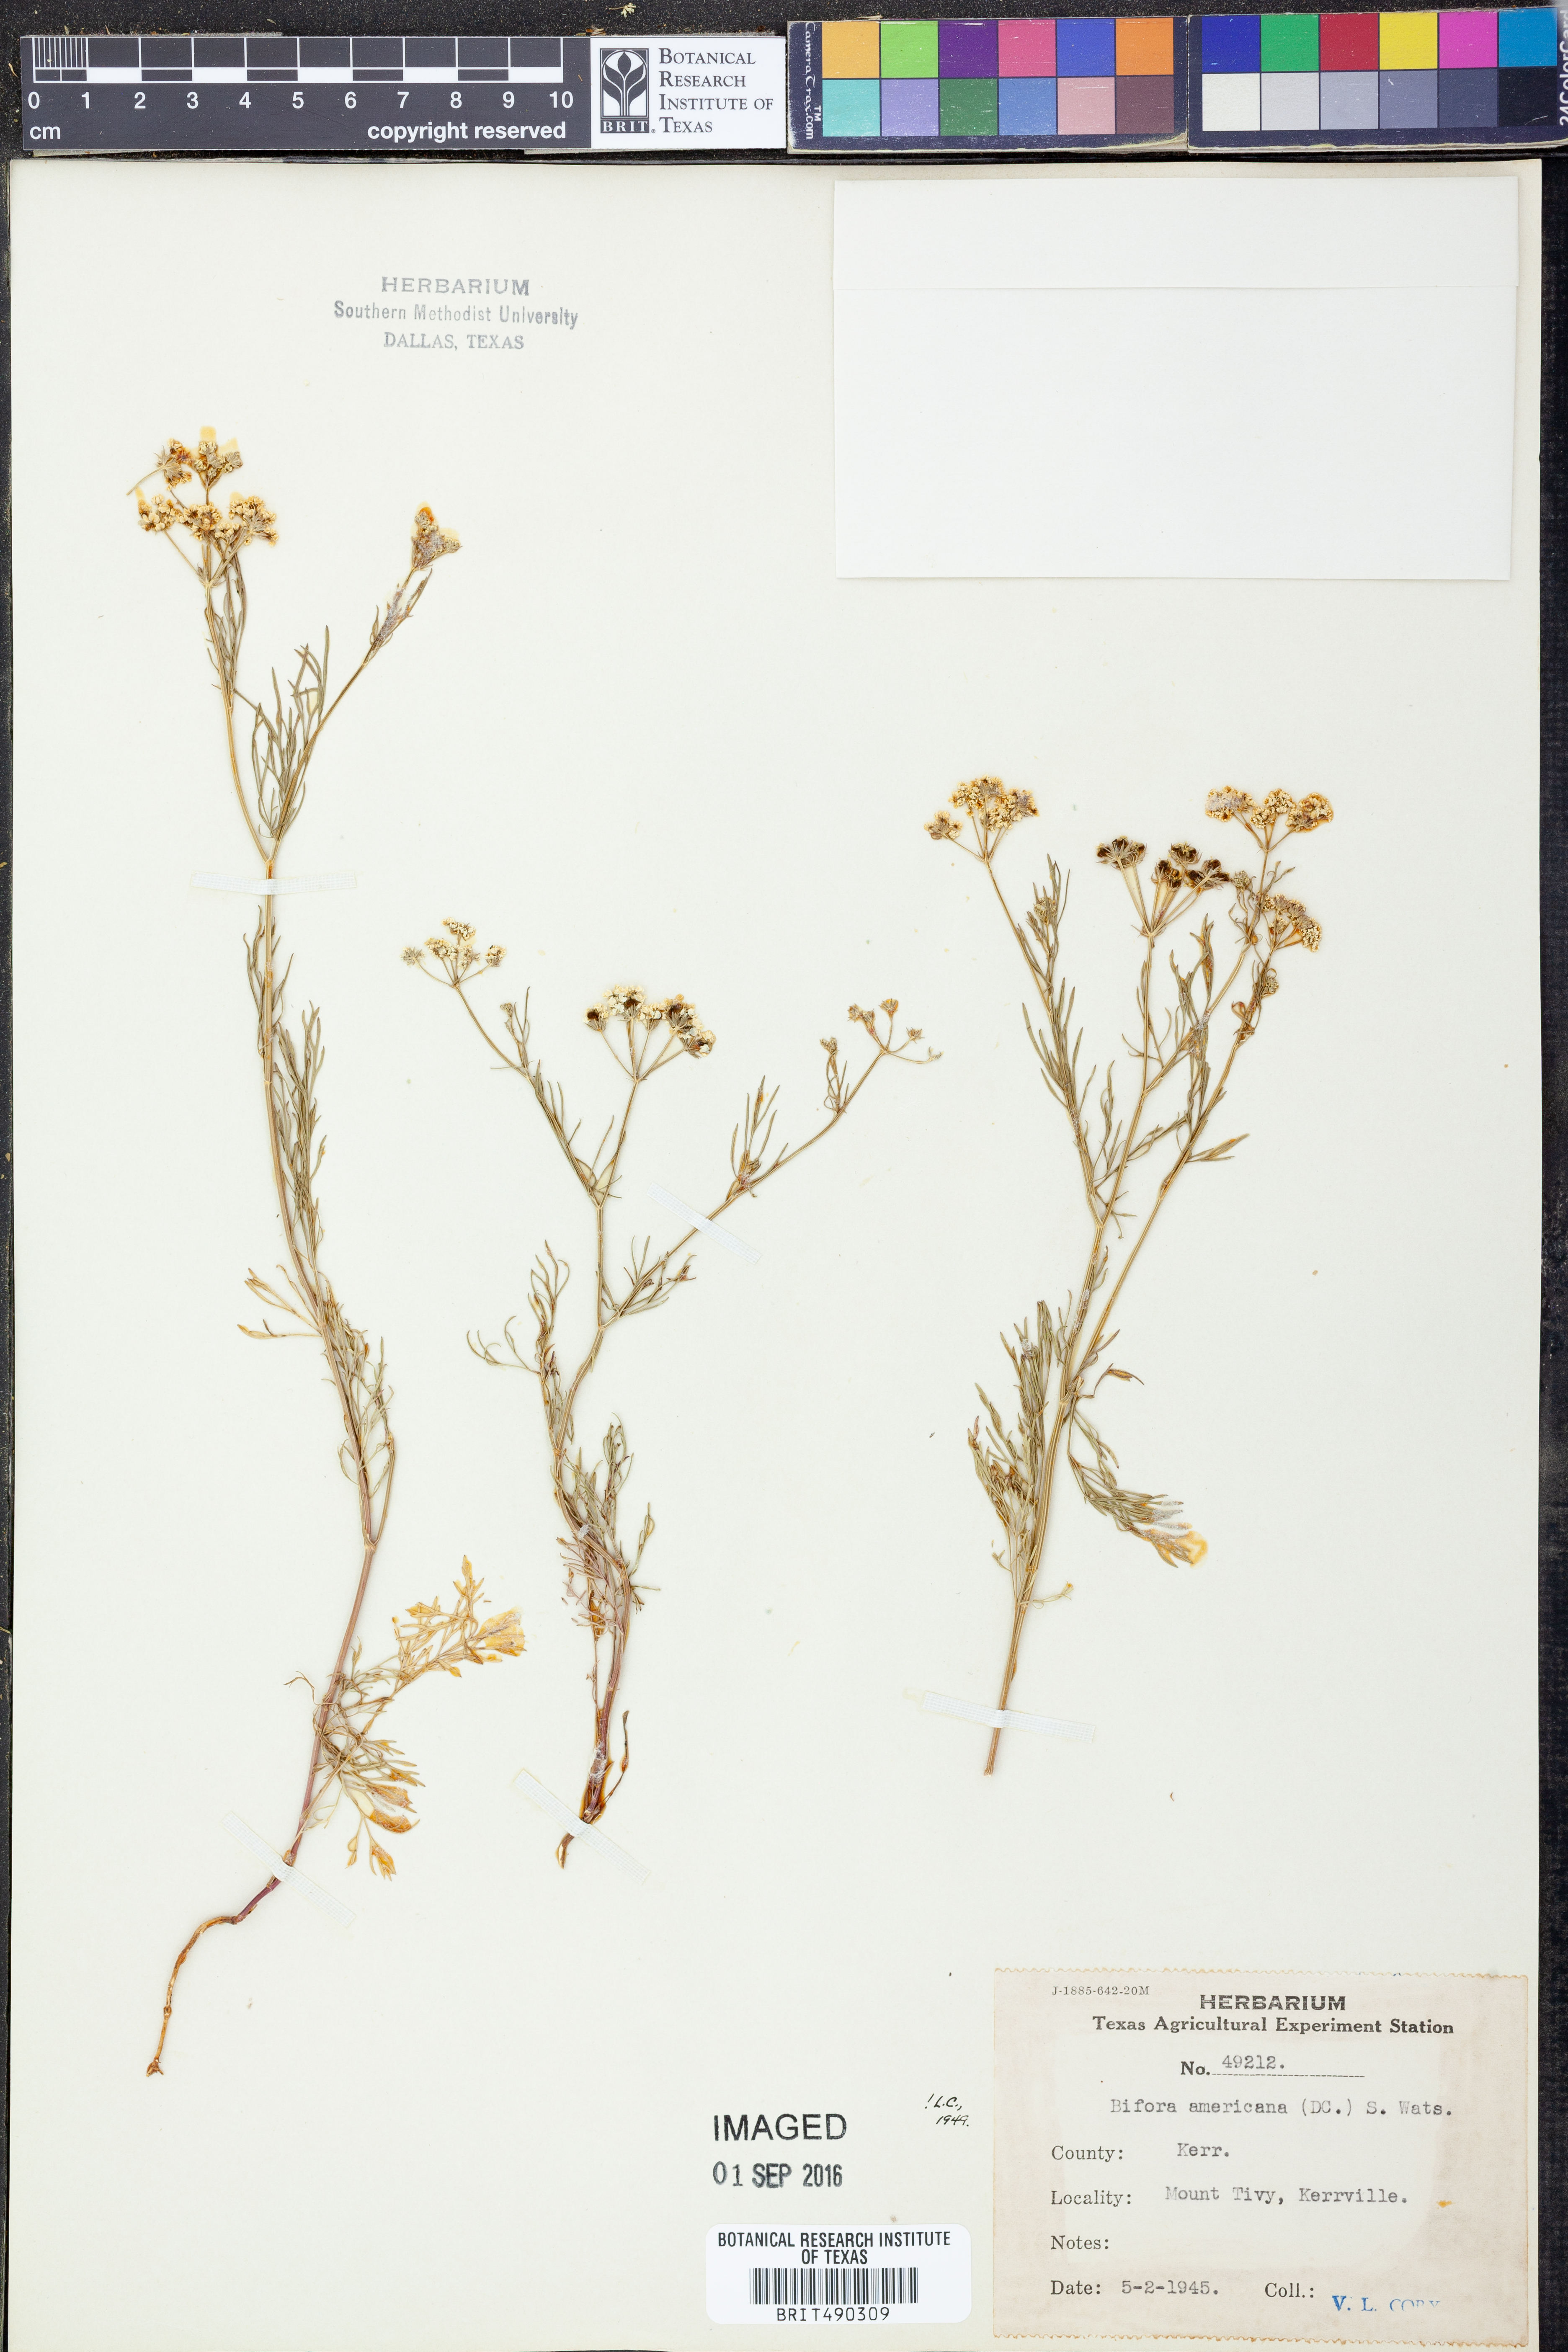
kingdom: Plantae
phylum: Tracheophyta
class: Magnoliopsida
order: Apiales
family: Apiaceae
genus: Atrema
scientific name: Atrema americanum
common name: Prairie-bishop
